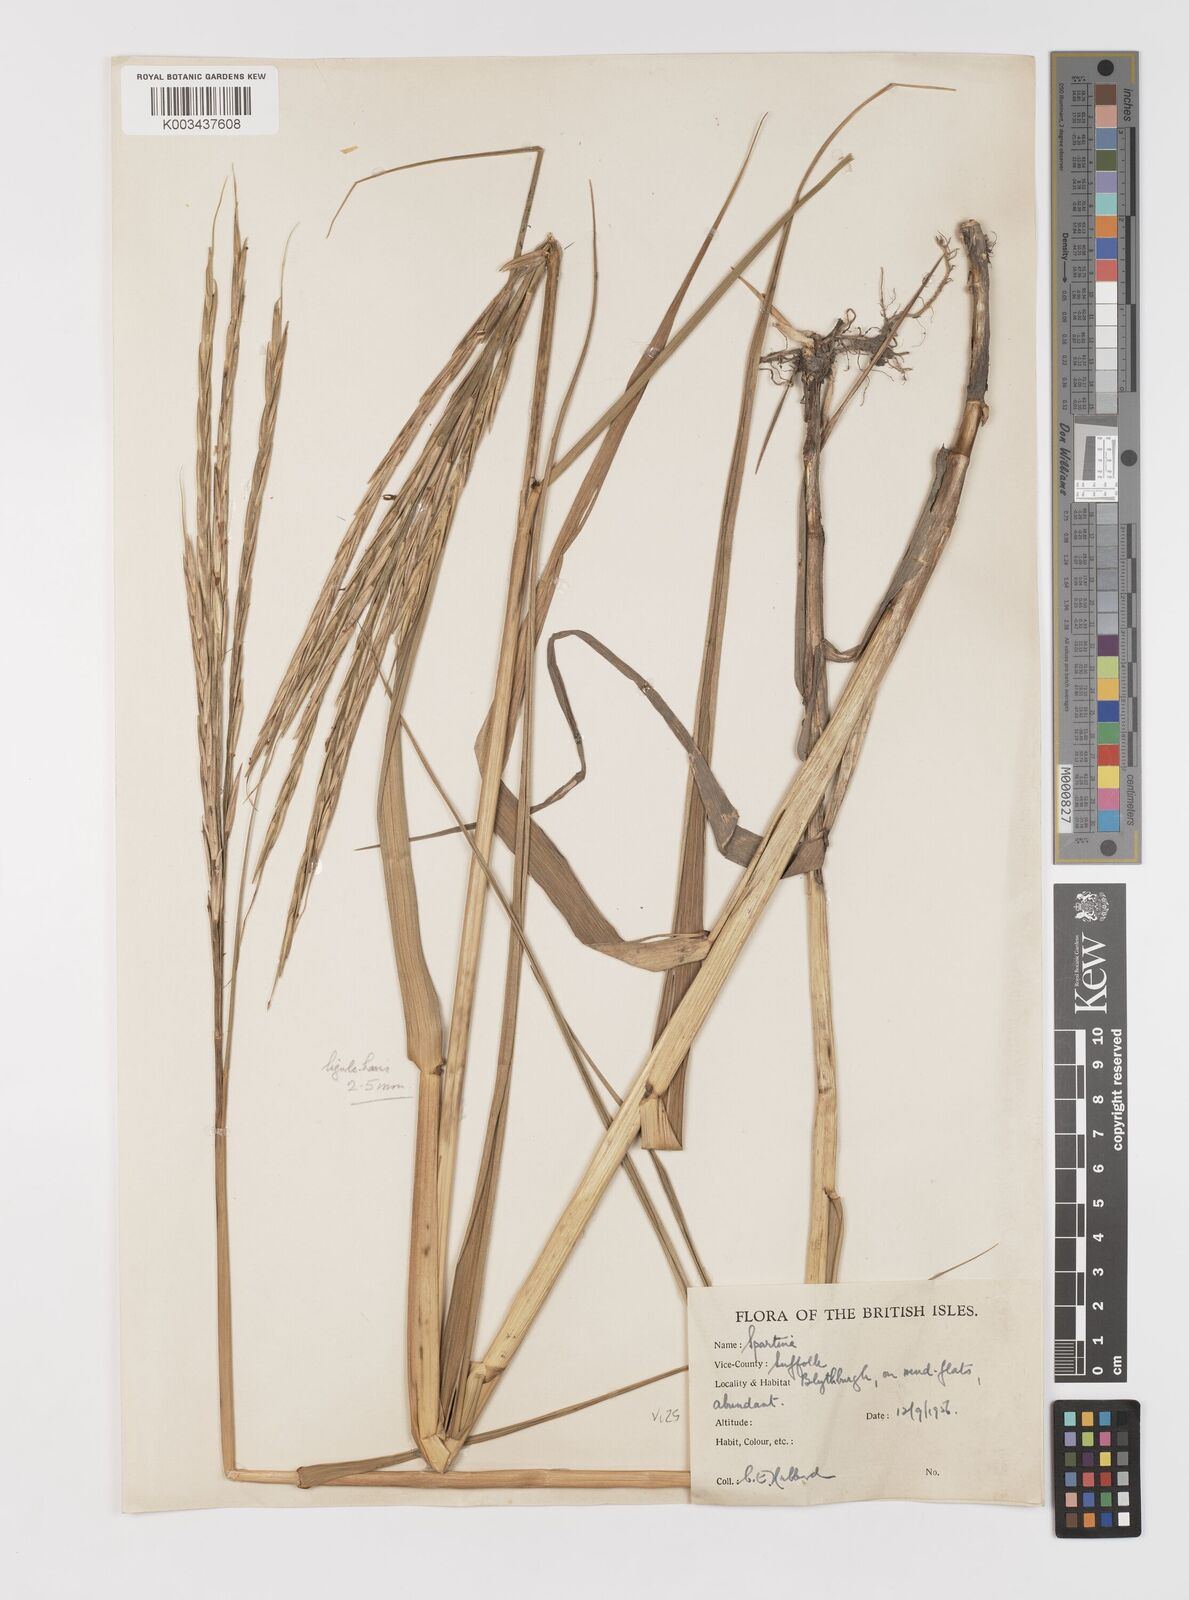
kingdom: Plantae
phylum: Tracheophyta
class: Liliopsida
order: Poales
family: Poaceae
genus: Sporobolus
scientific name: Sporobolus anglicus
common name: English cordgrass
